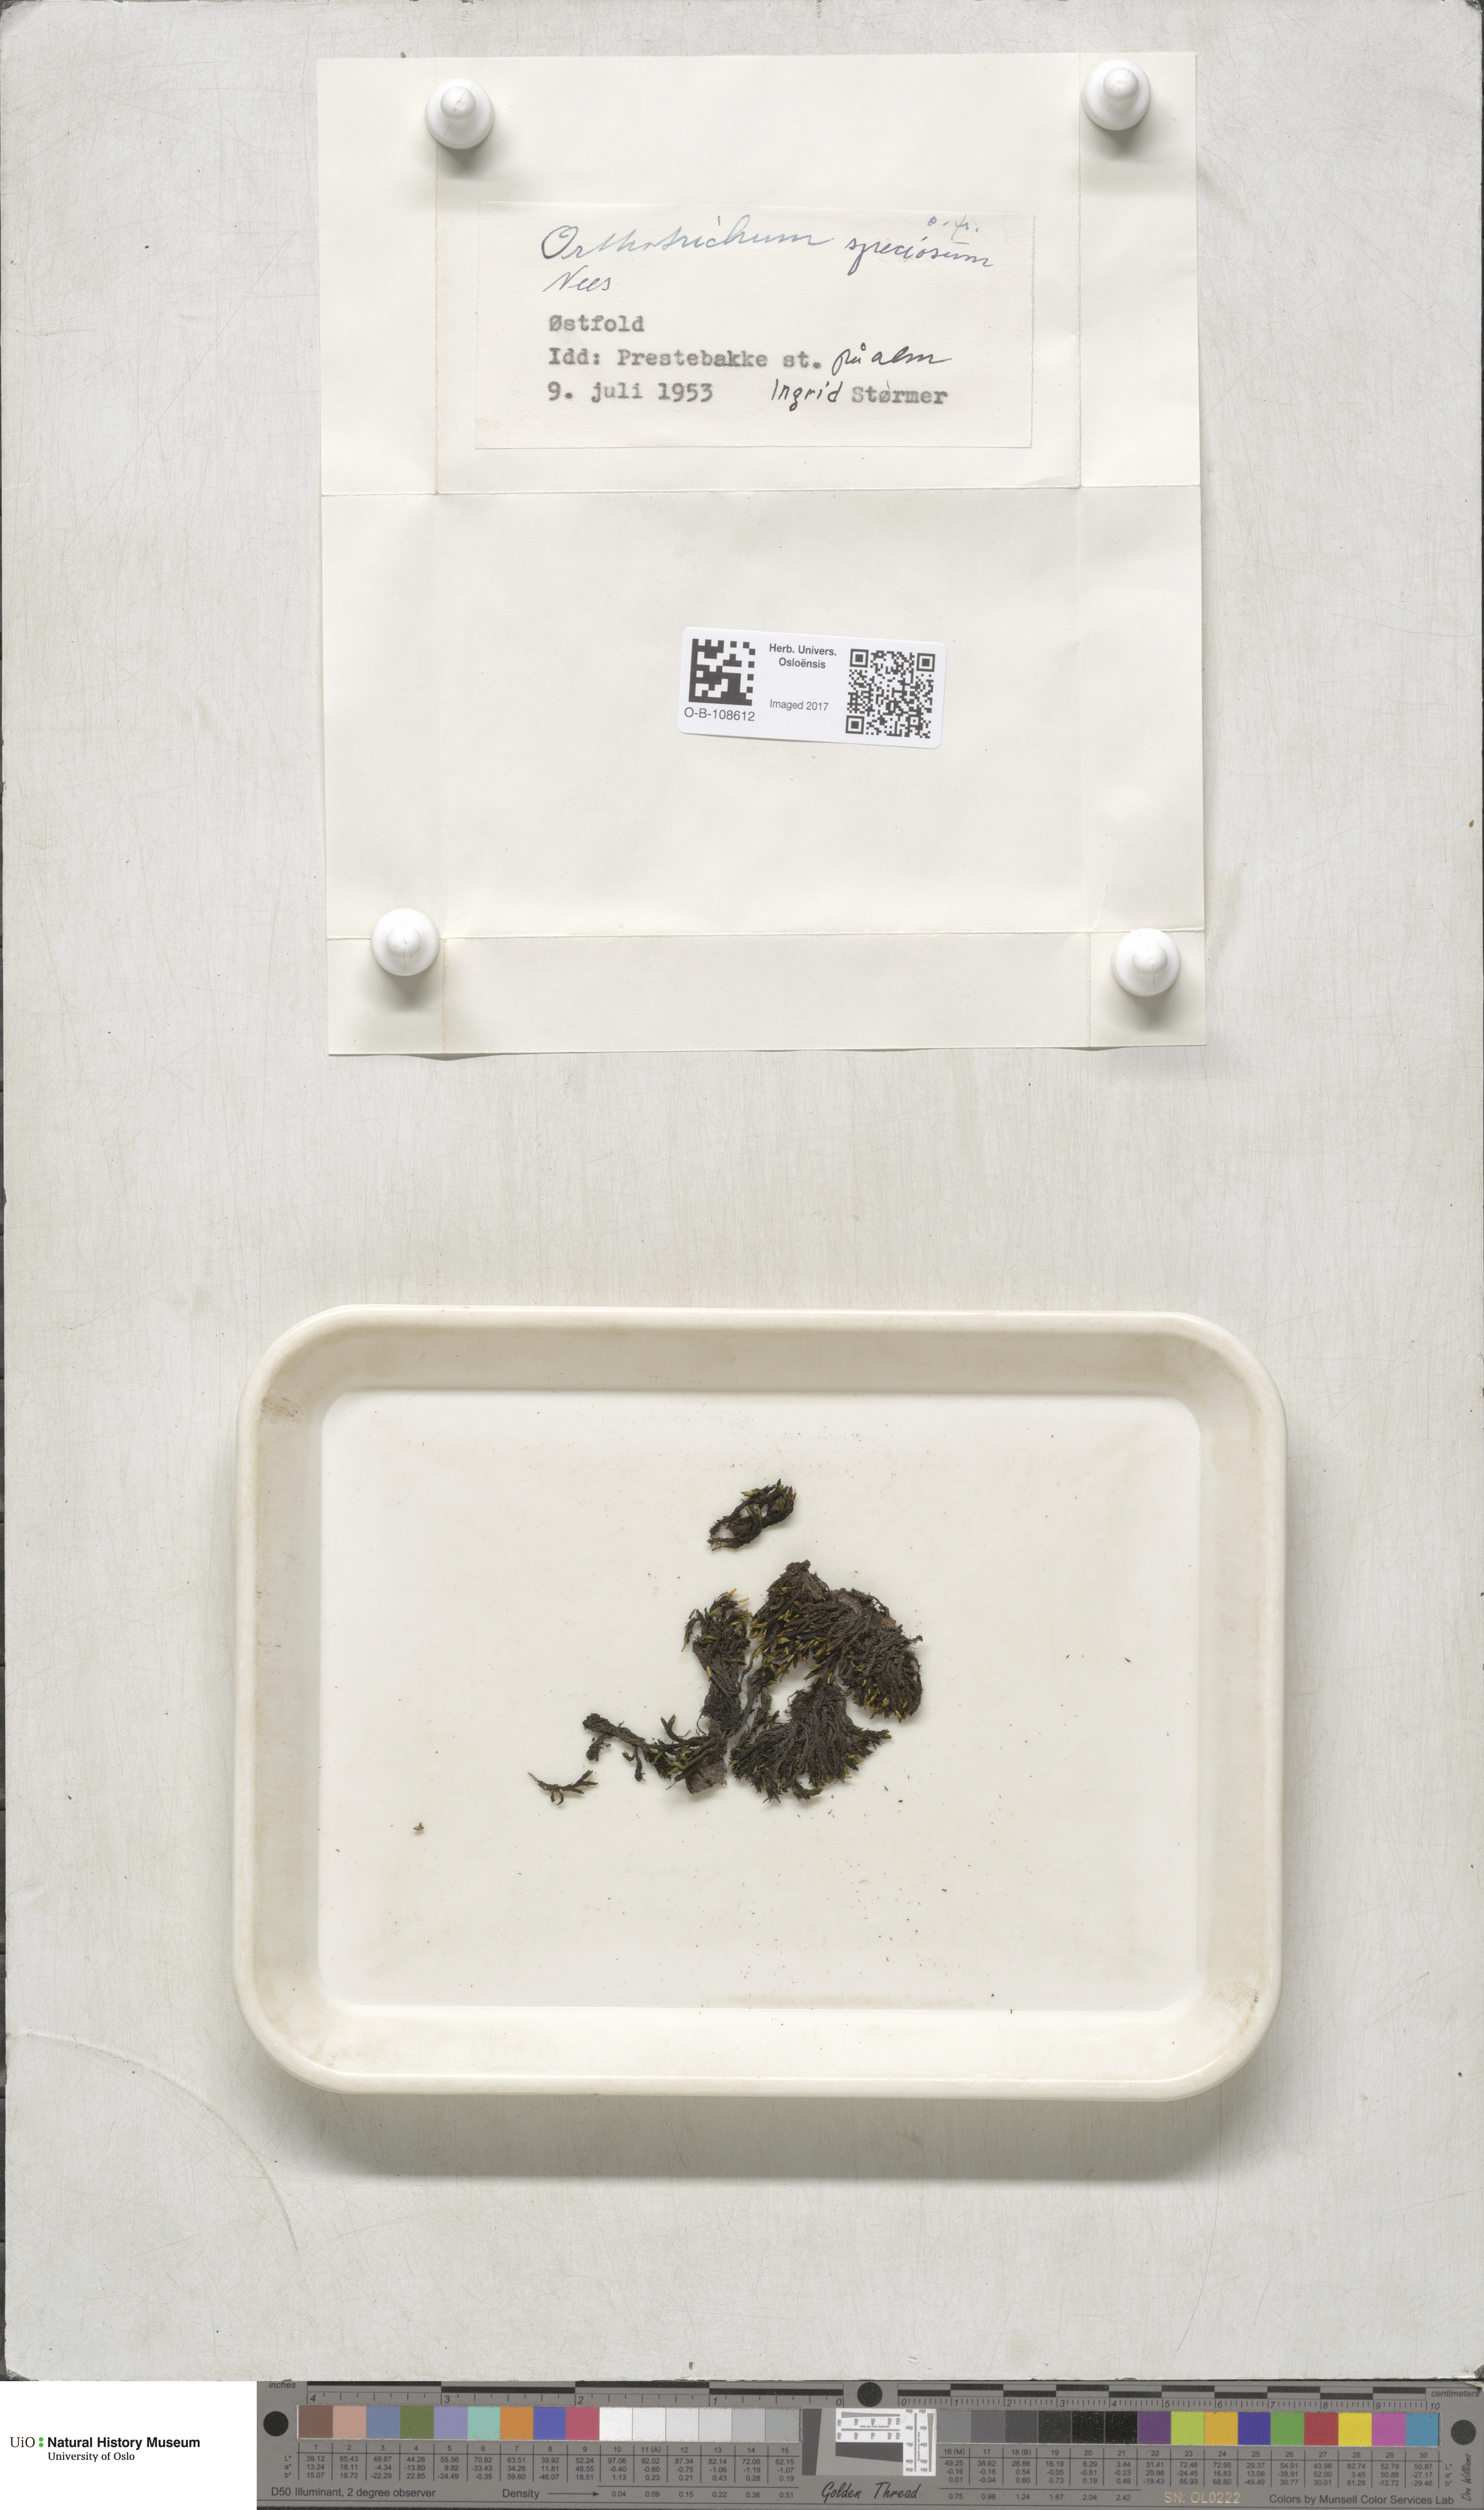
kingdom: Plantae
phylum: Bryophyta
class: Bryopsida
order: Orthotrichales
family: Orthotrichaceae
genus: Lewinskya
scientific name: Lewinskya speciosa
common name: Showy bristle moss
